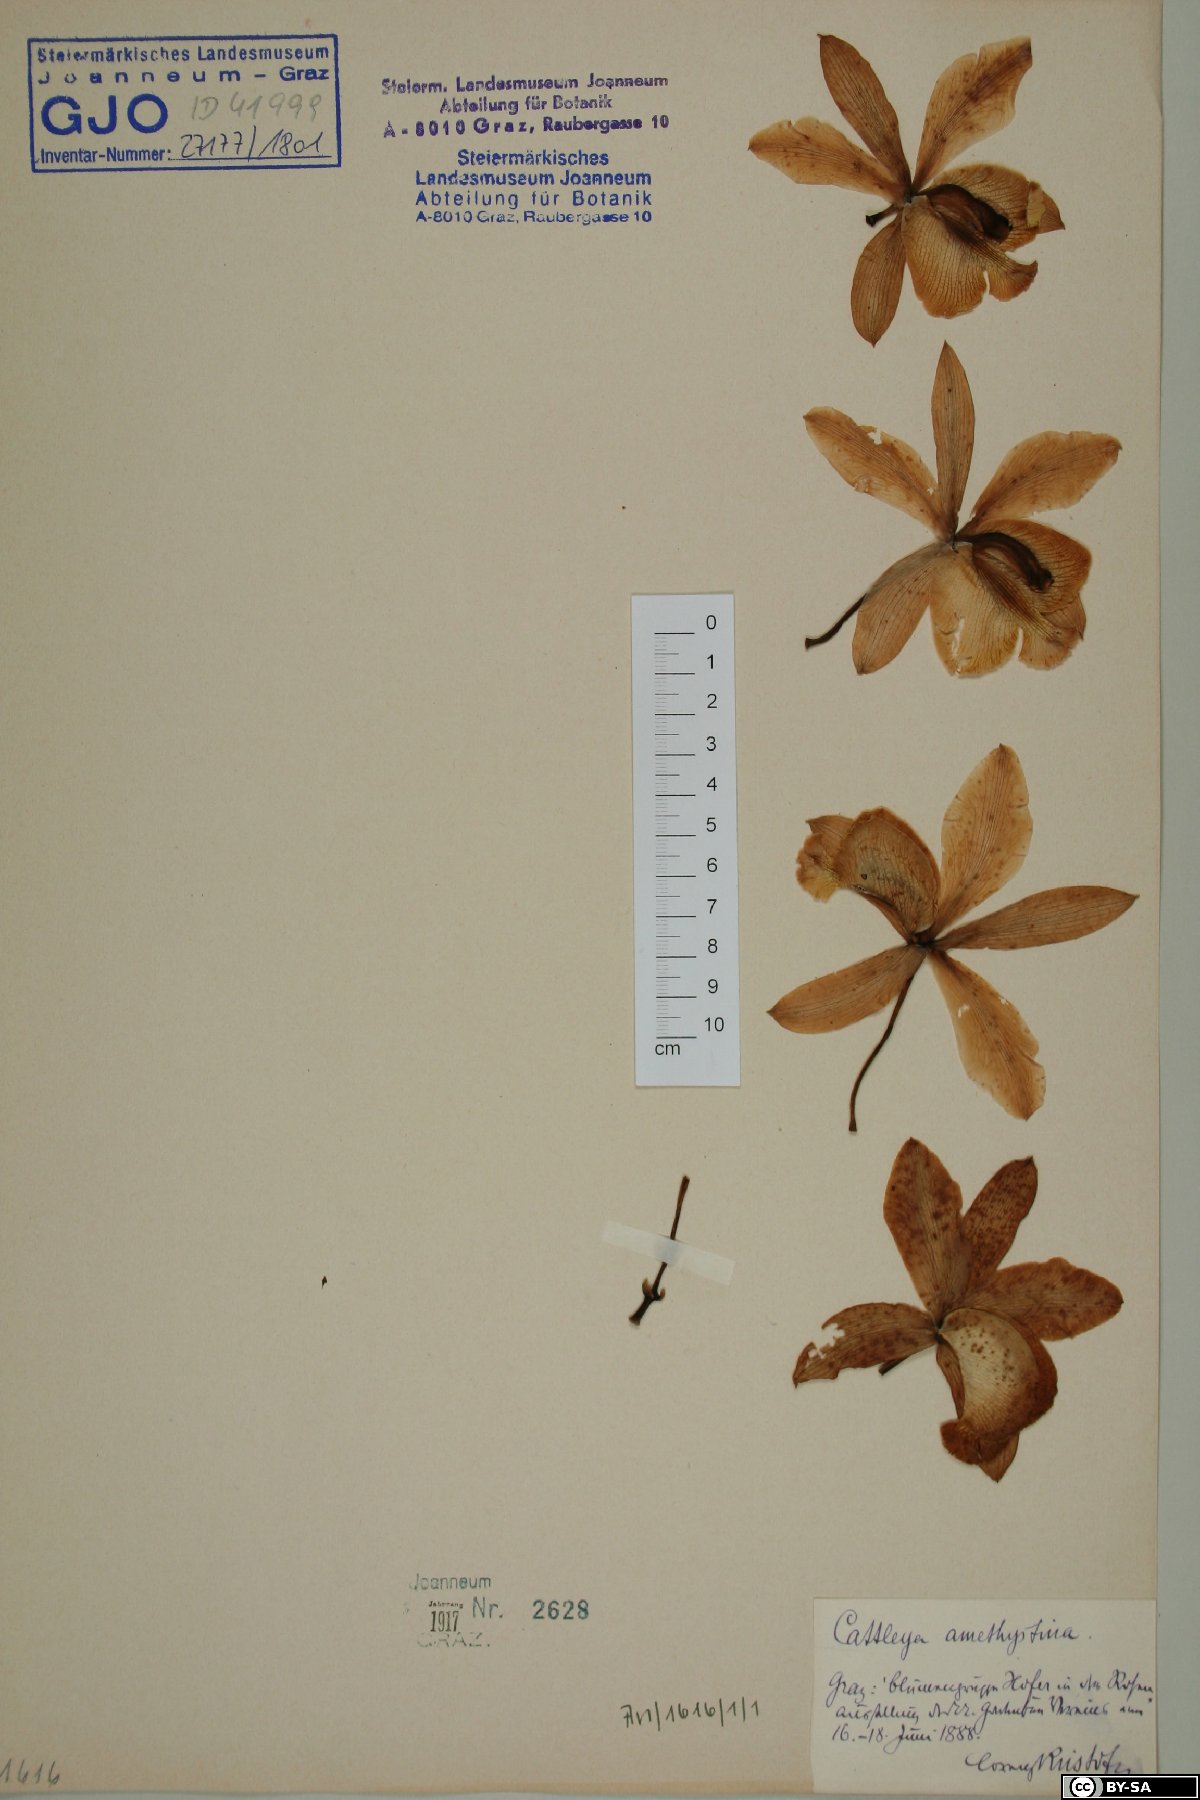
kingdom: Plantae
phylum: Tracheophyta
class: Liliopsida
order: Asparagales
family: Orchidaceae
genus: Cattleya
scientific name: Cattleya intermedia
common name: Intermediate cattleya
